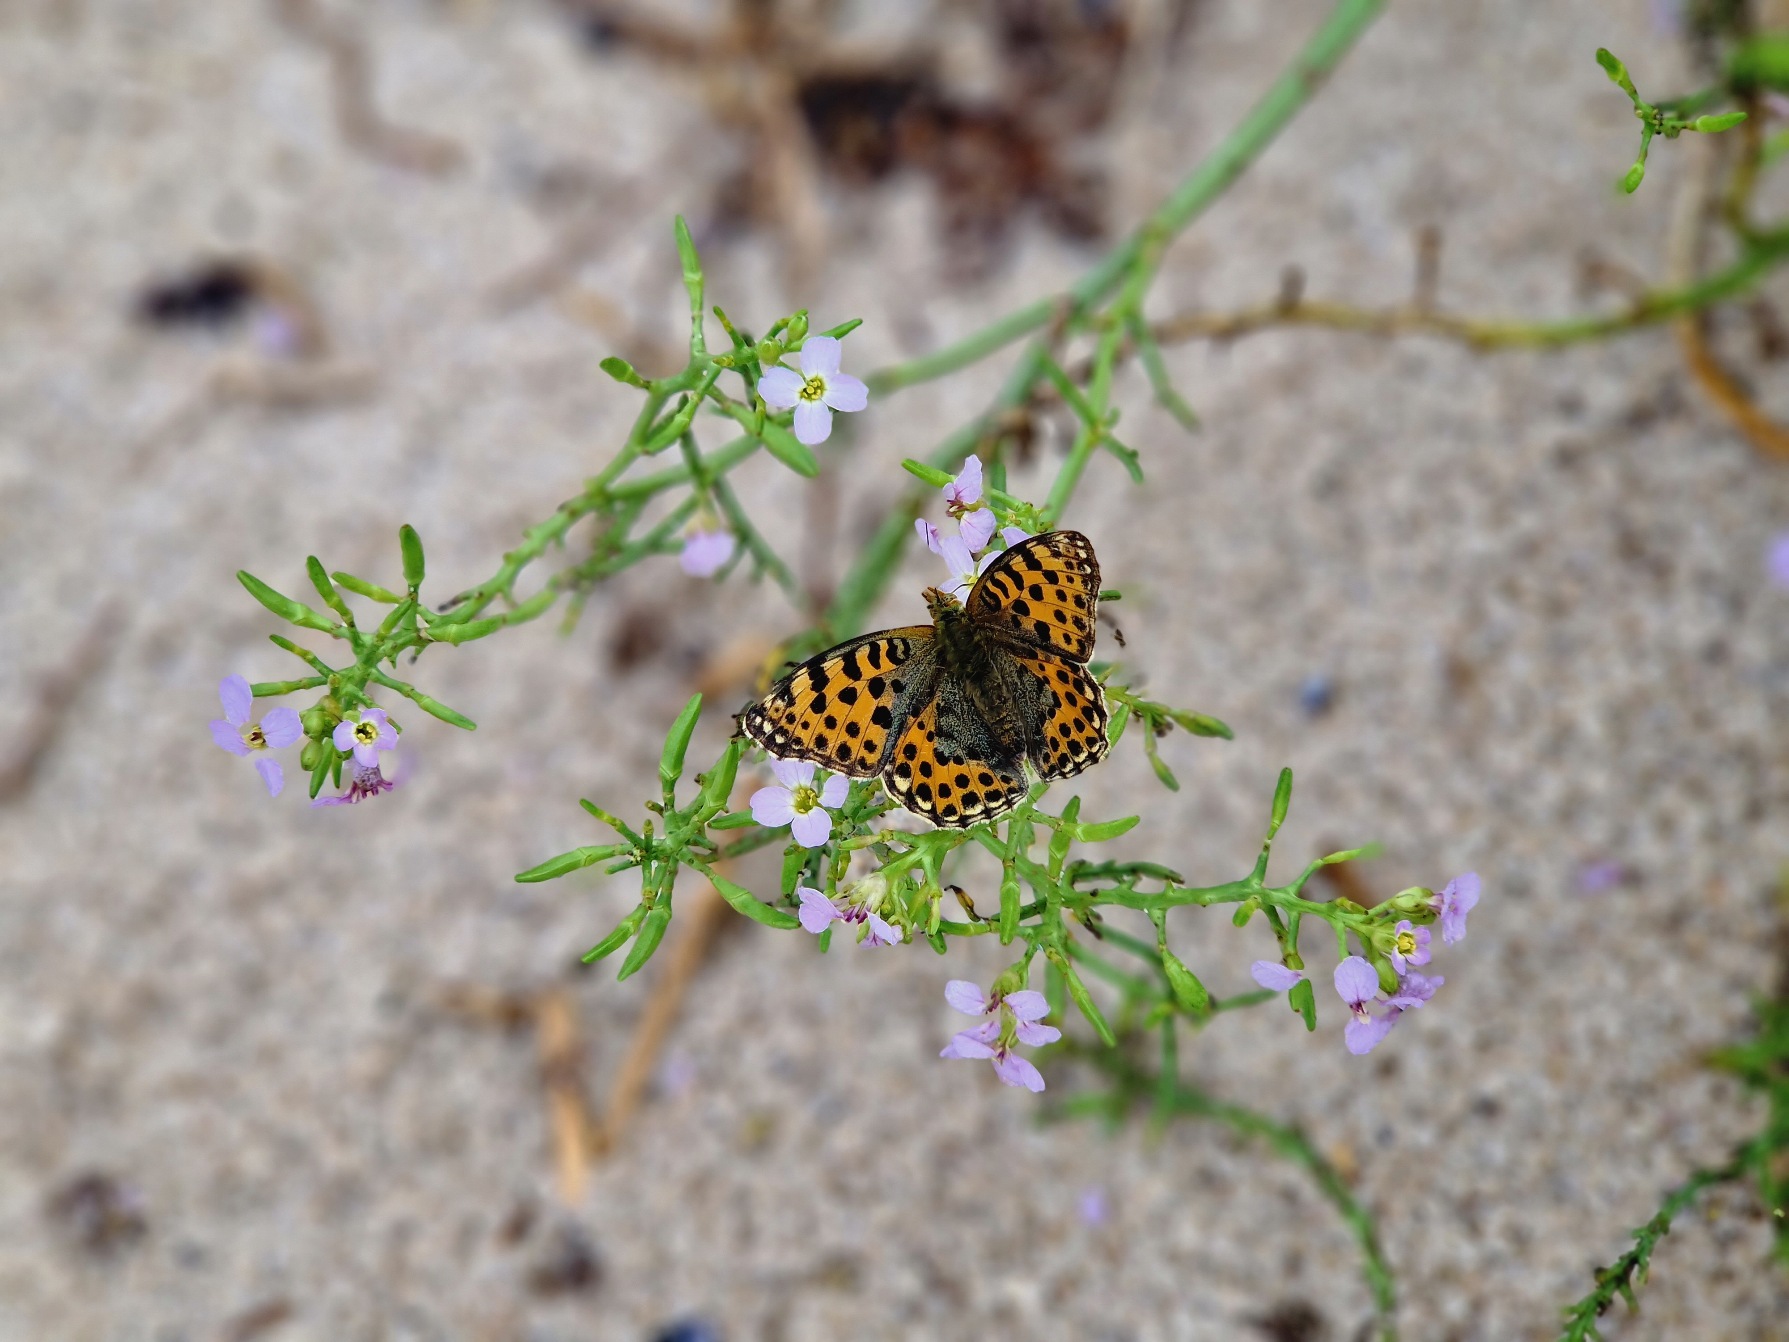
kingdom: Animalia
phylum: Arthropoda
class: Insecta
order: Lepidoptera
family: Nymphalidae
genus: Issoria
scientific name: Issoria lathonia
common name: Storplettet perlemorsommerfugl
